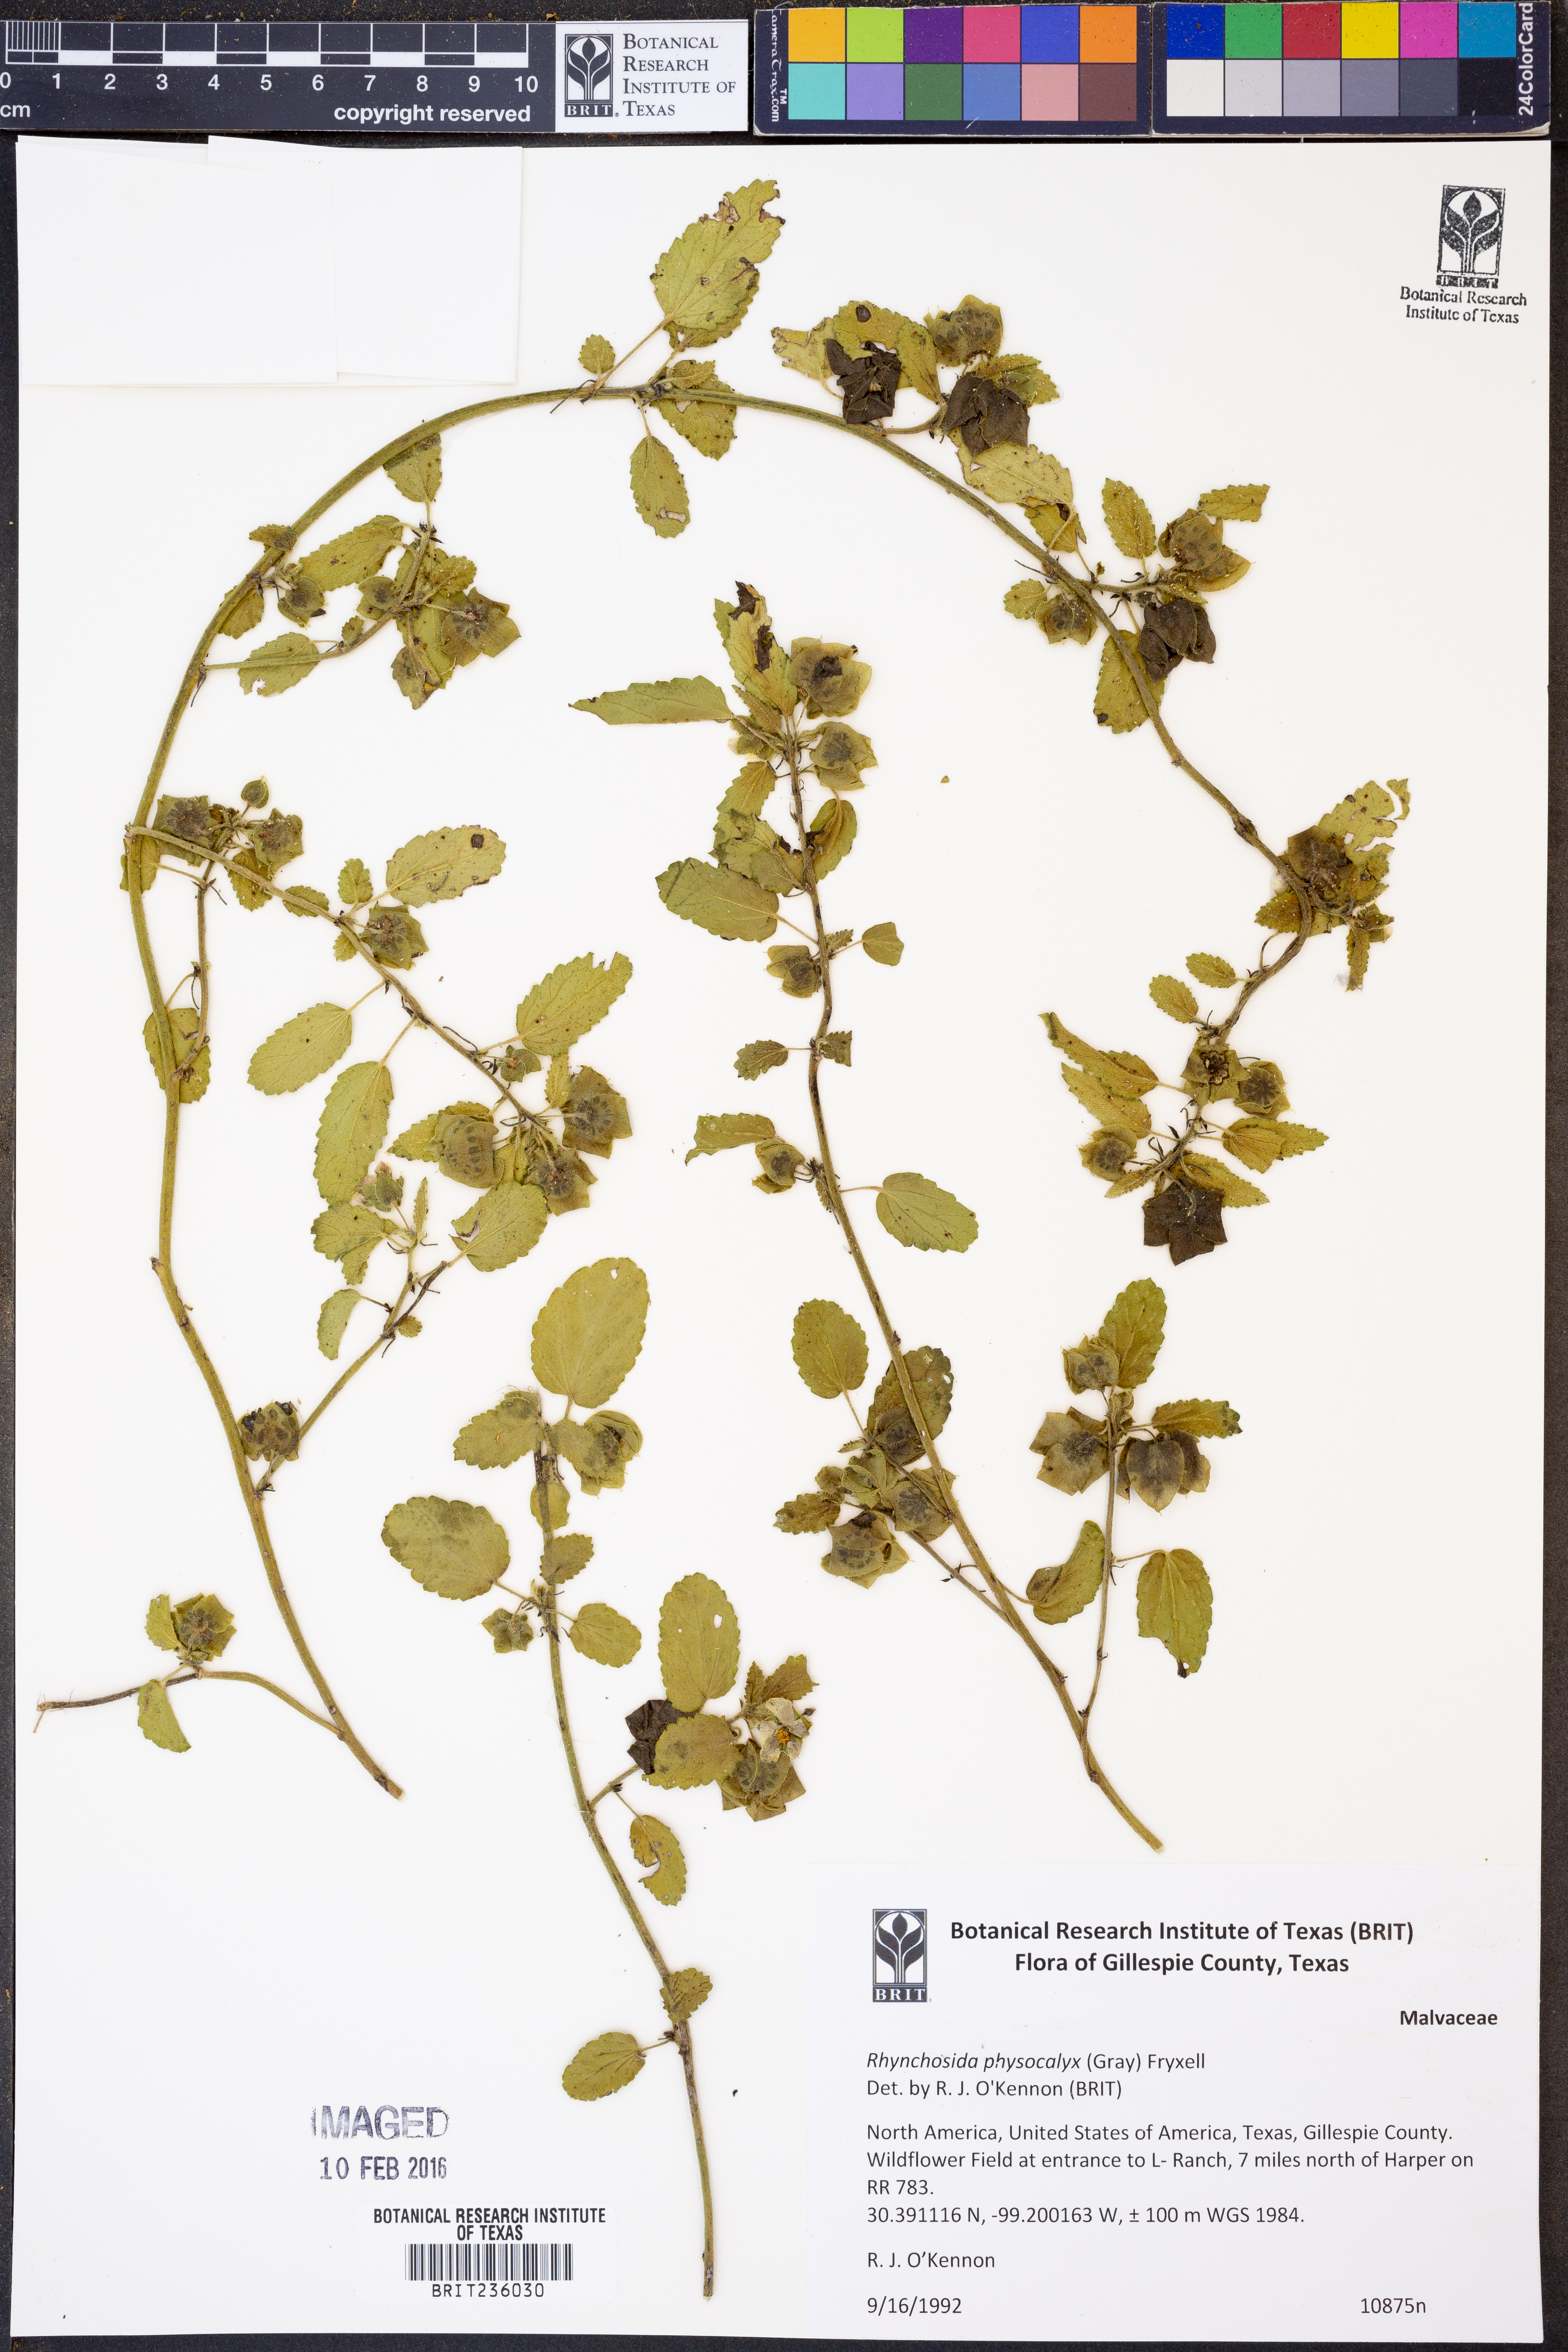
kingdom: Plantae
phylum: Tracheophyta
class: Magnoliopsida
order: Malvales
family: Malvaceae
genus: Rhynchosida
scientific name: Rhynchosida physocalyx
